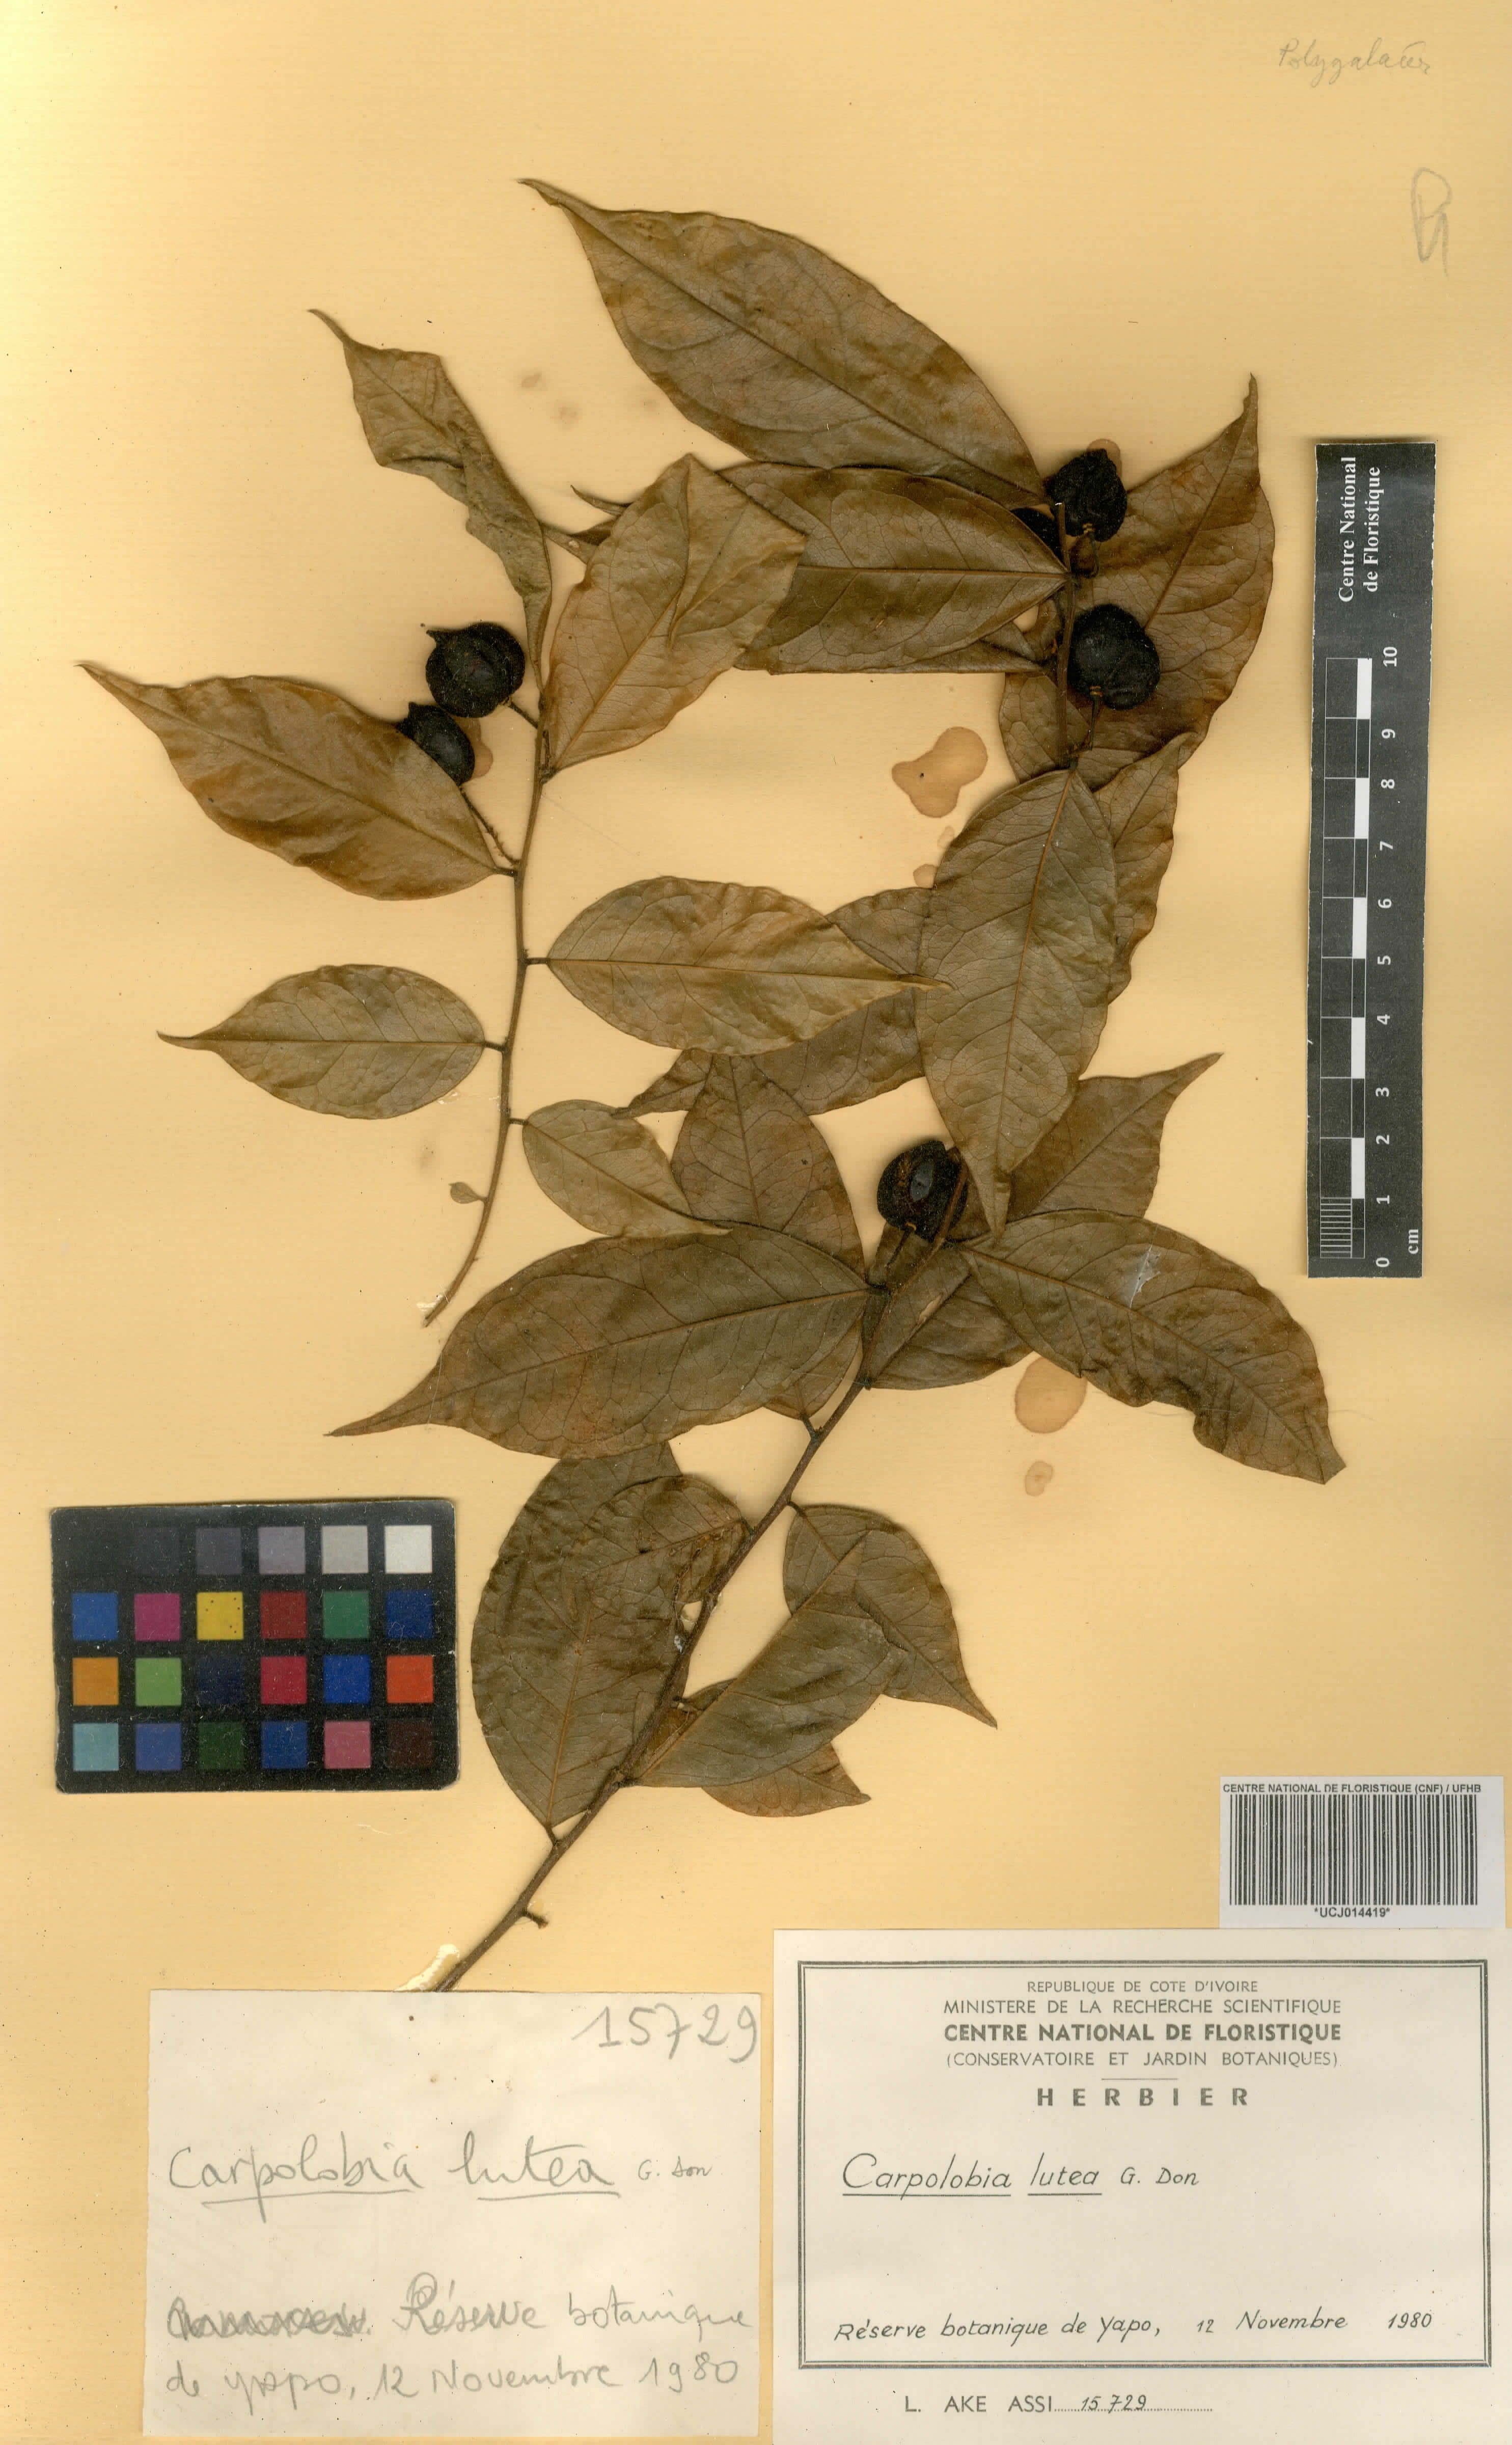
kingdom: Plantae
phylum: Tracheophyta
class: Magnoliopsida
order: Fabales
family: Polygalaceae
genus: Carpolobia
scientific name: Carpolobia lutea
